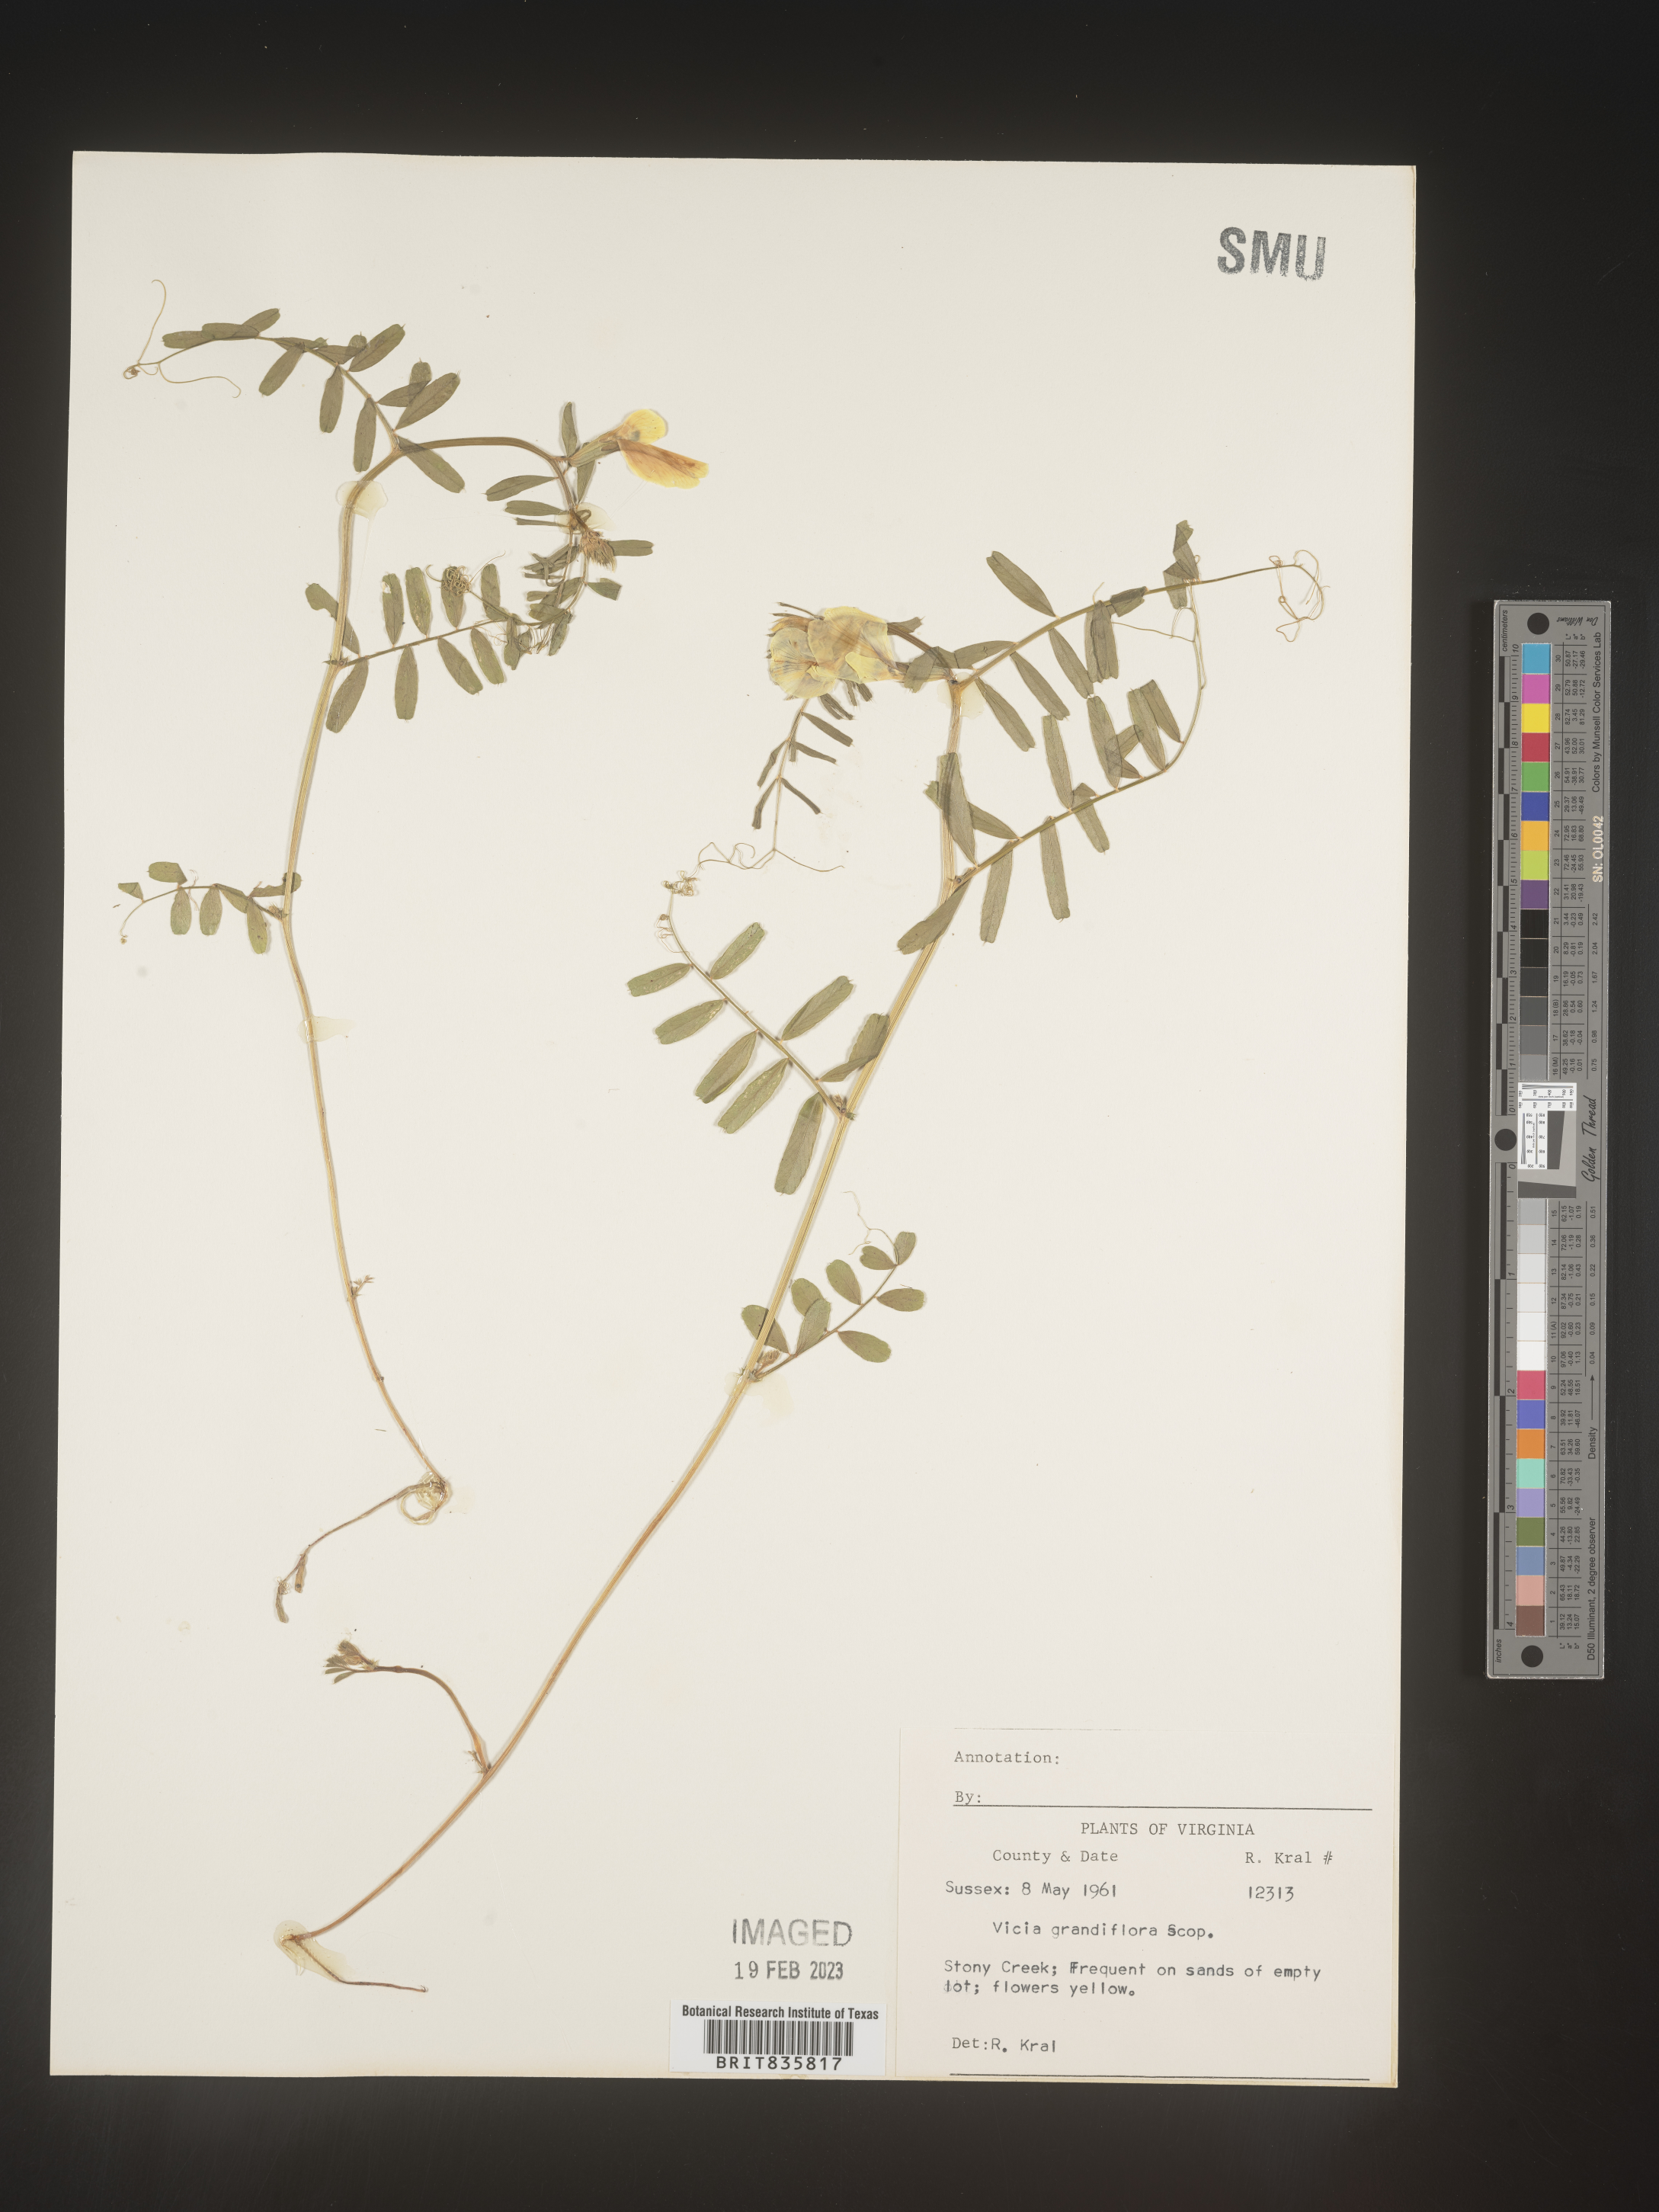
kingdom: Plantae
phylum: Tracheophyta
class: Magnoliopsida
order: Fabales
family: Fabaceae
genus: Vicia
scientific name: Vicia grandiflora
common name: Large yellow vetch
